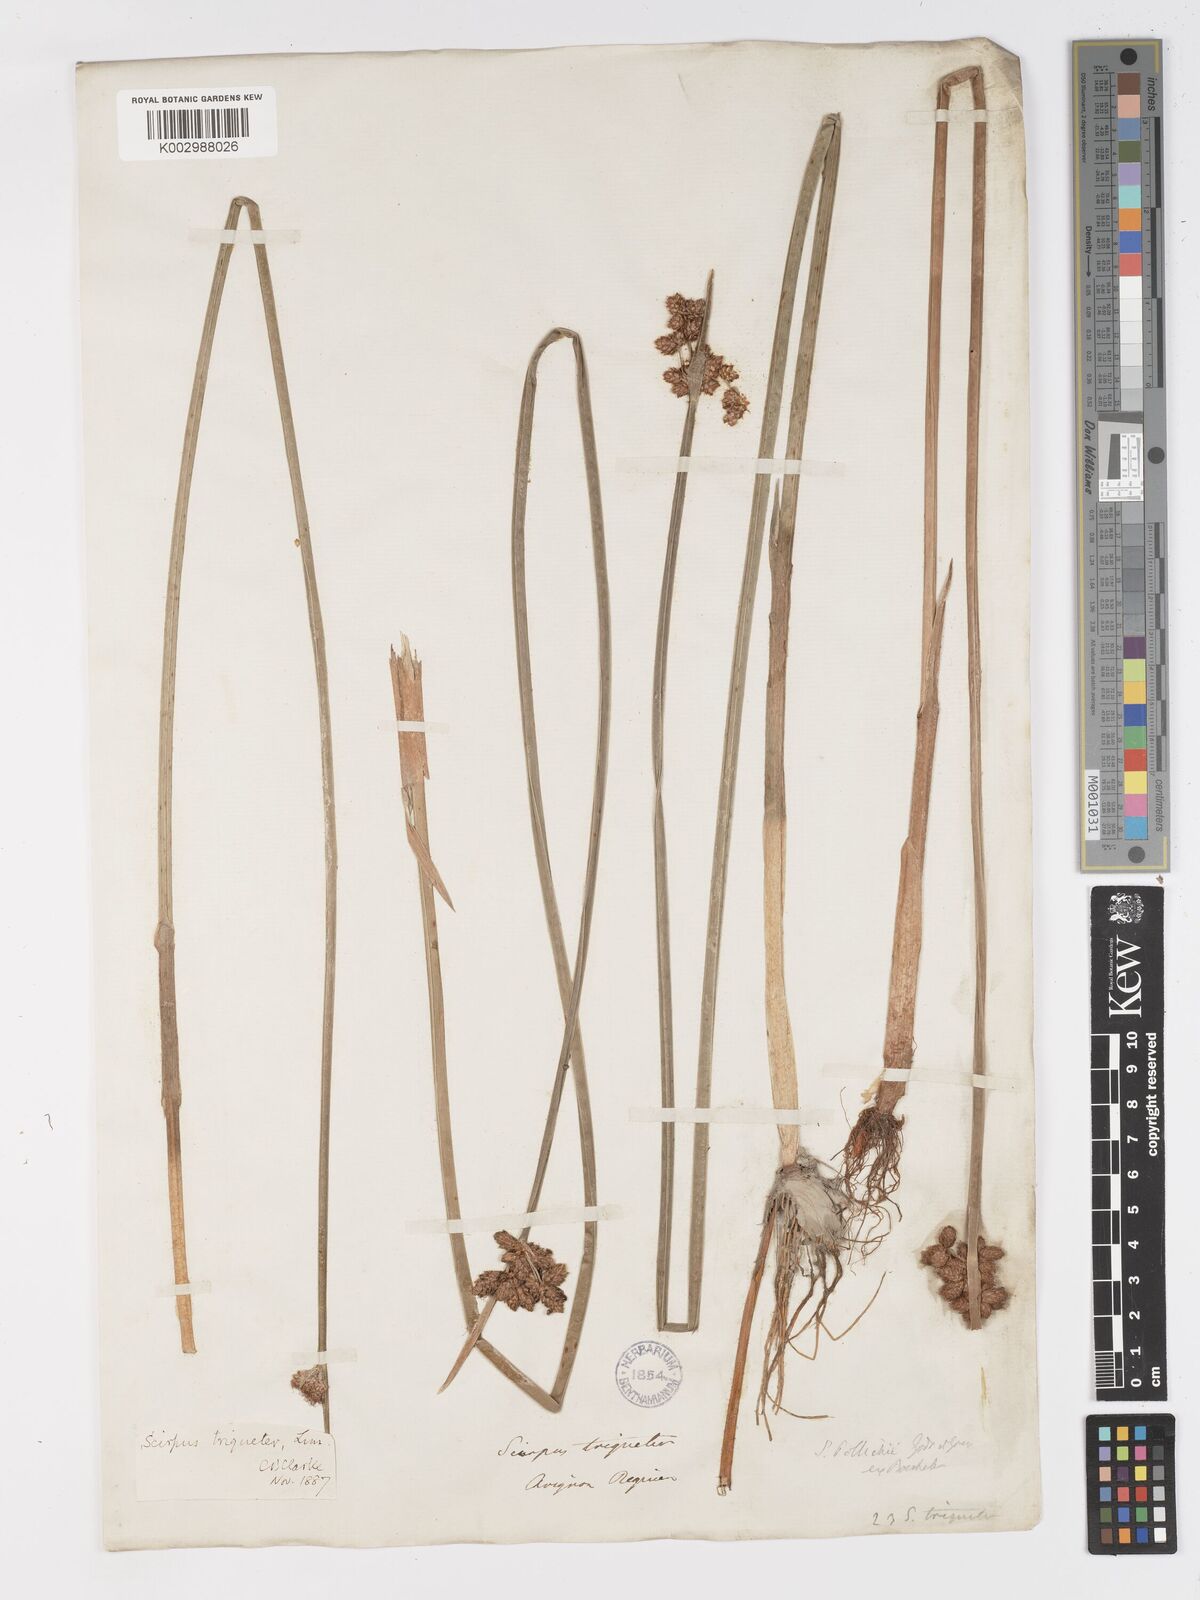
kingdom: Plantae
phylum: Tracheophyta
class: Liliopsida
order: Poales
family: Cyperaceae
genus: Schoenoplectus
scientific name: Schoenoplectus triqueter
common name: Triangular club-rush
